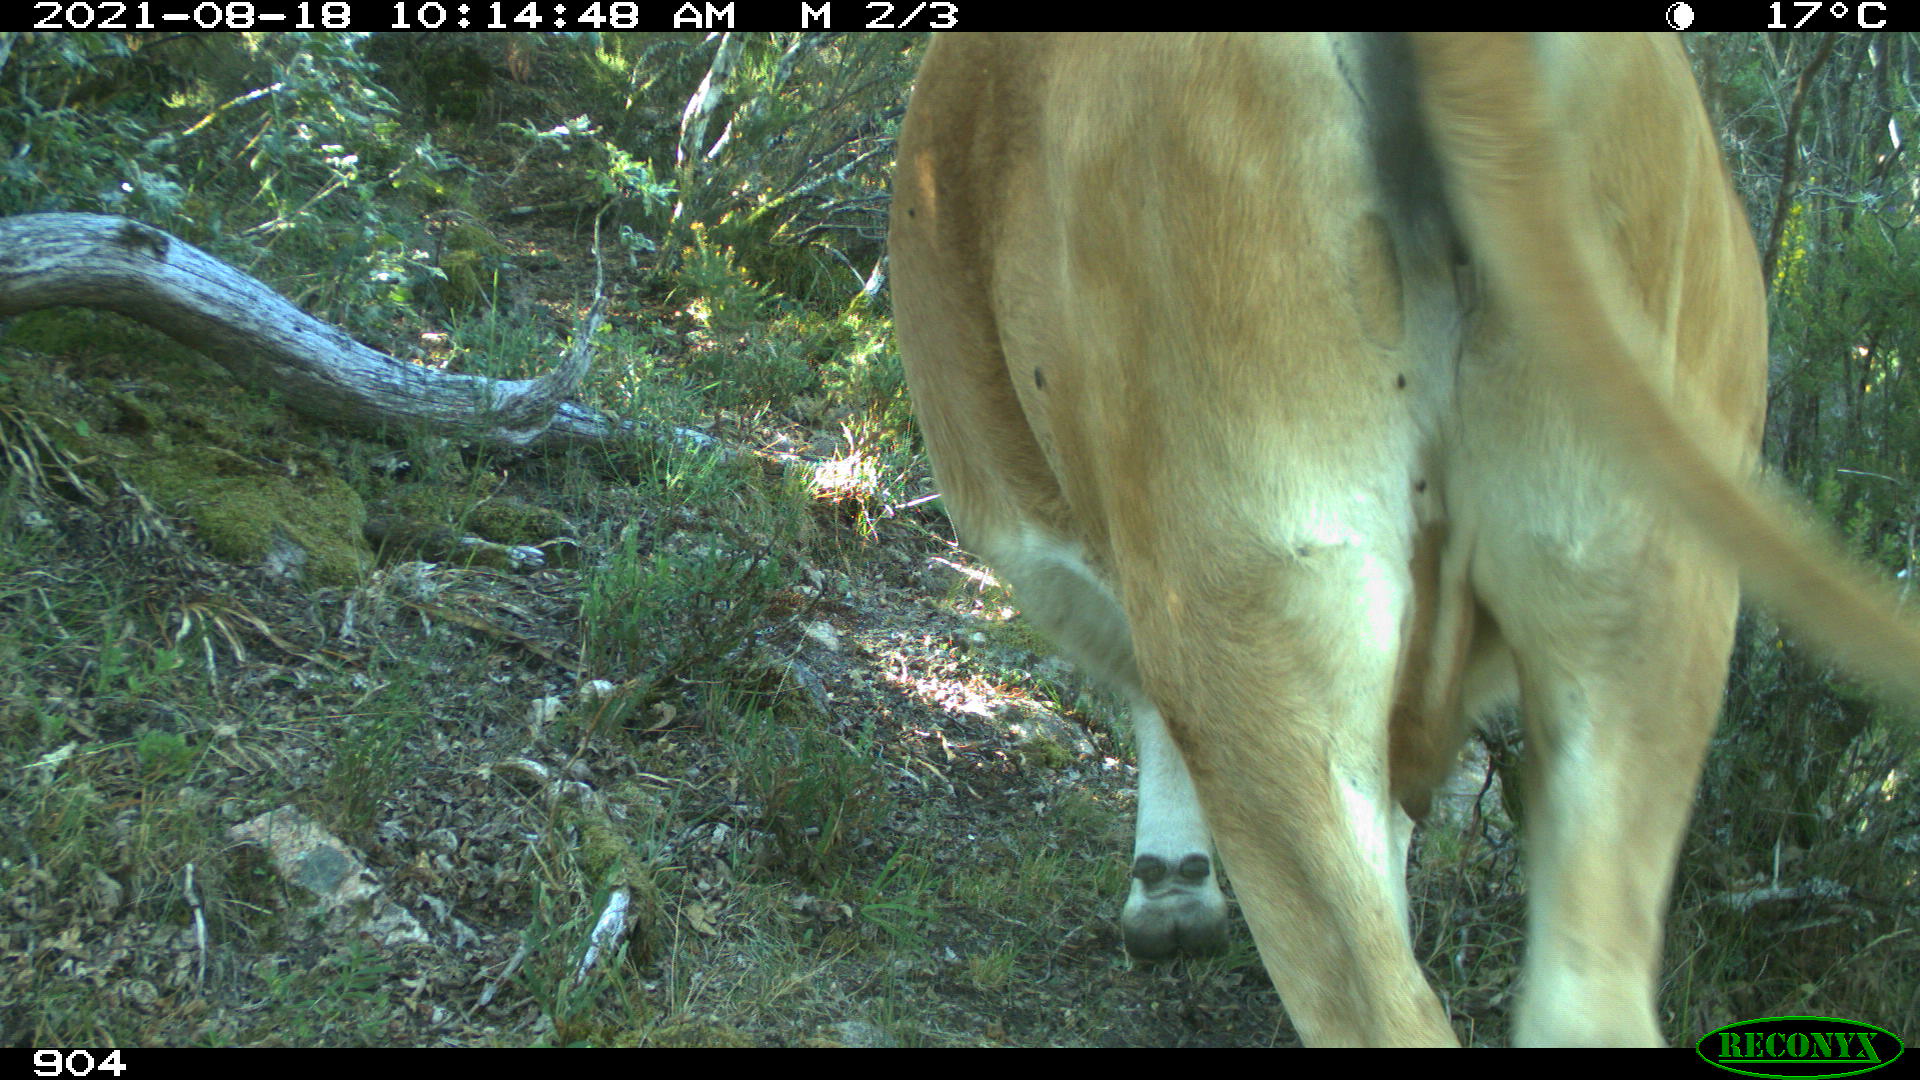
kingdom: Animalia
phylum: Chordata
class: Mammalia
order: Artiodactyla
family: Bovidae
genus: Bos
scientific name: Bos taurus
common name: Domesticated cattle
